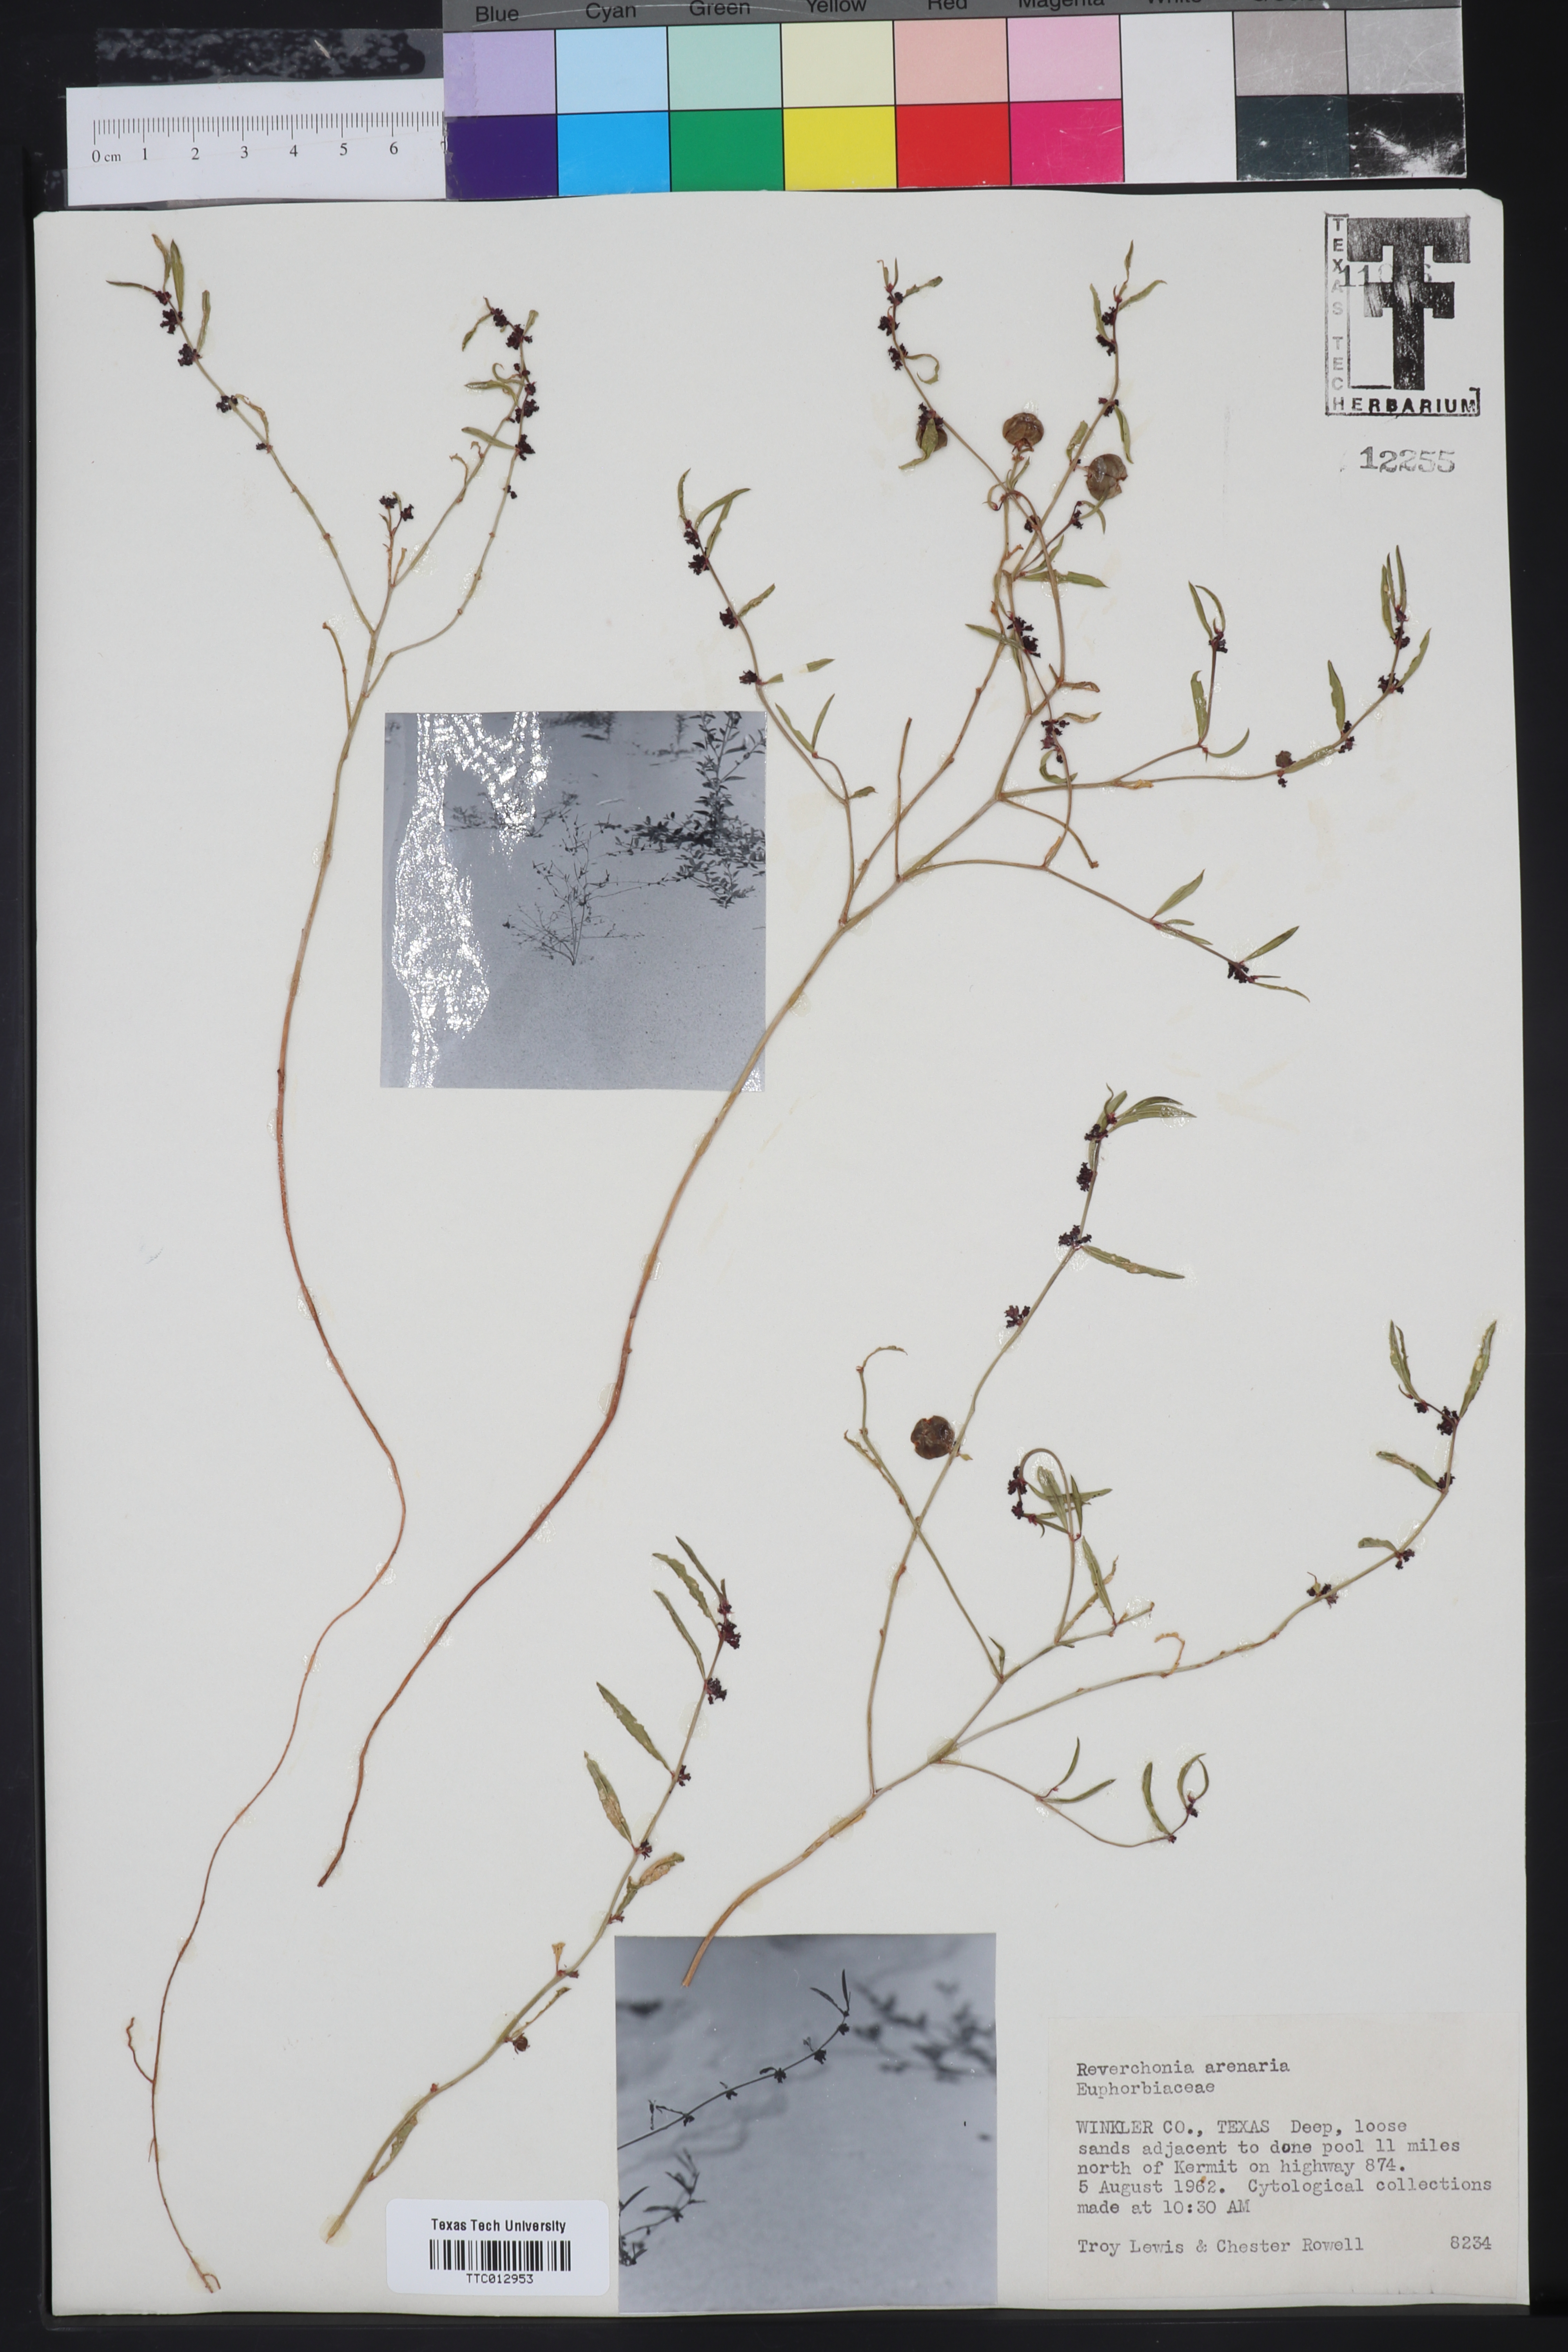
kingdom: Plantae
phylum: Tracheophyta
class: Magnoliopsida
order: Malpighiales
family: Phyllanthaceae
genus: Phyllanthus
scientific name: Phyllanthus warnockii
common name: Sand reverchonia
